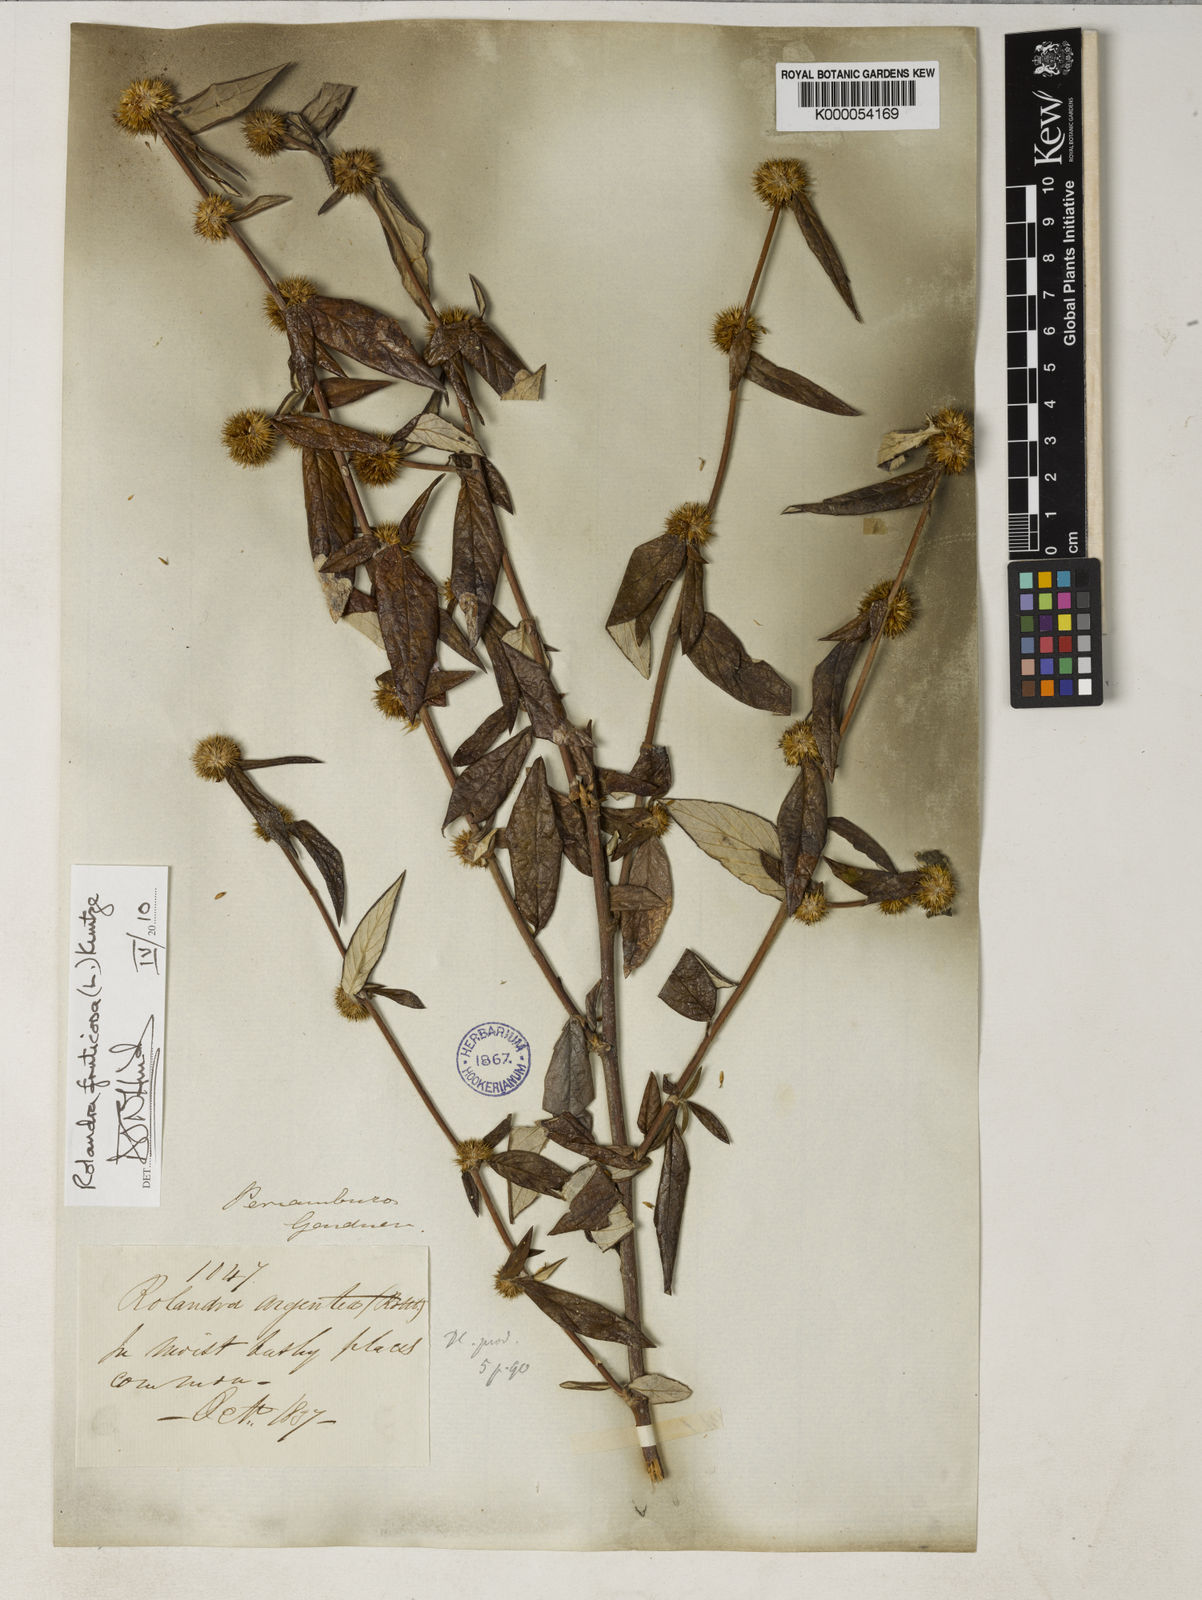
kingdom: Plantae
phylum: Tracheophyta
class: Magnoliopsida
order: Asterales
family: Asteraceae
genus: Rolandra
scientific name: Rolandra fruticosa
